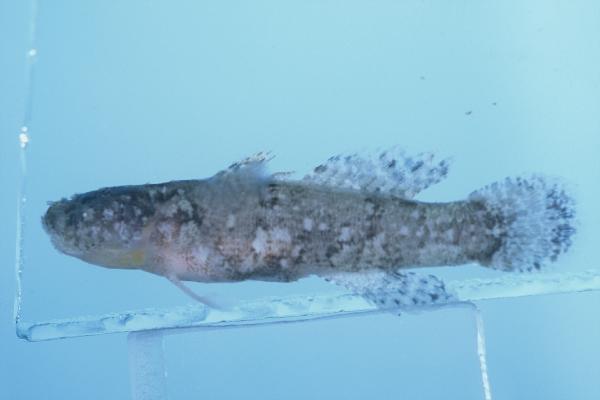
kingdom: Animalia
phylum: Chordata
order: Perciformes
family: Gobiidae
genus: Bathygobius
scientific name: Bathygobius cocosensis
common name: Cocos frillgoby
